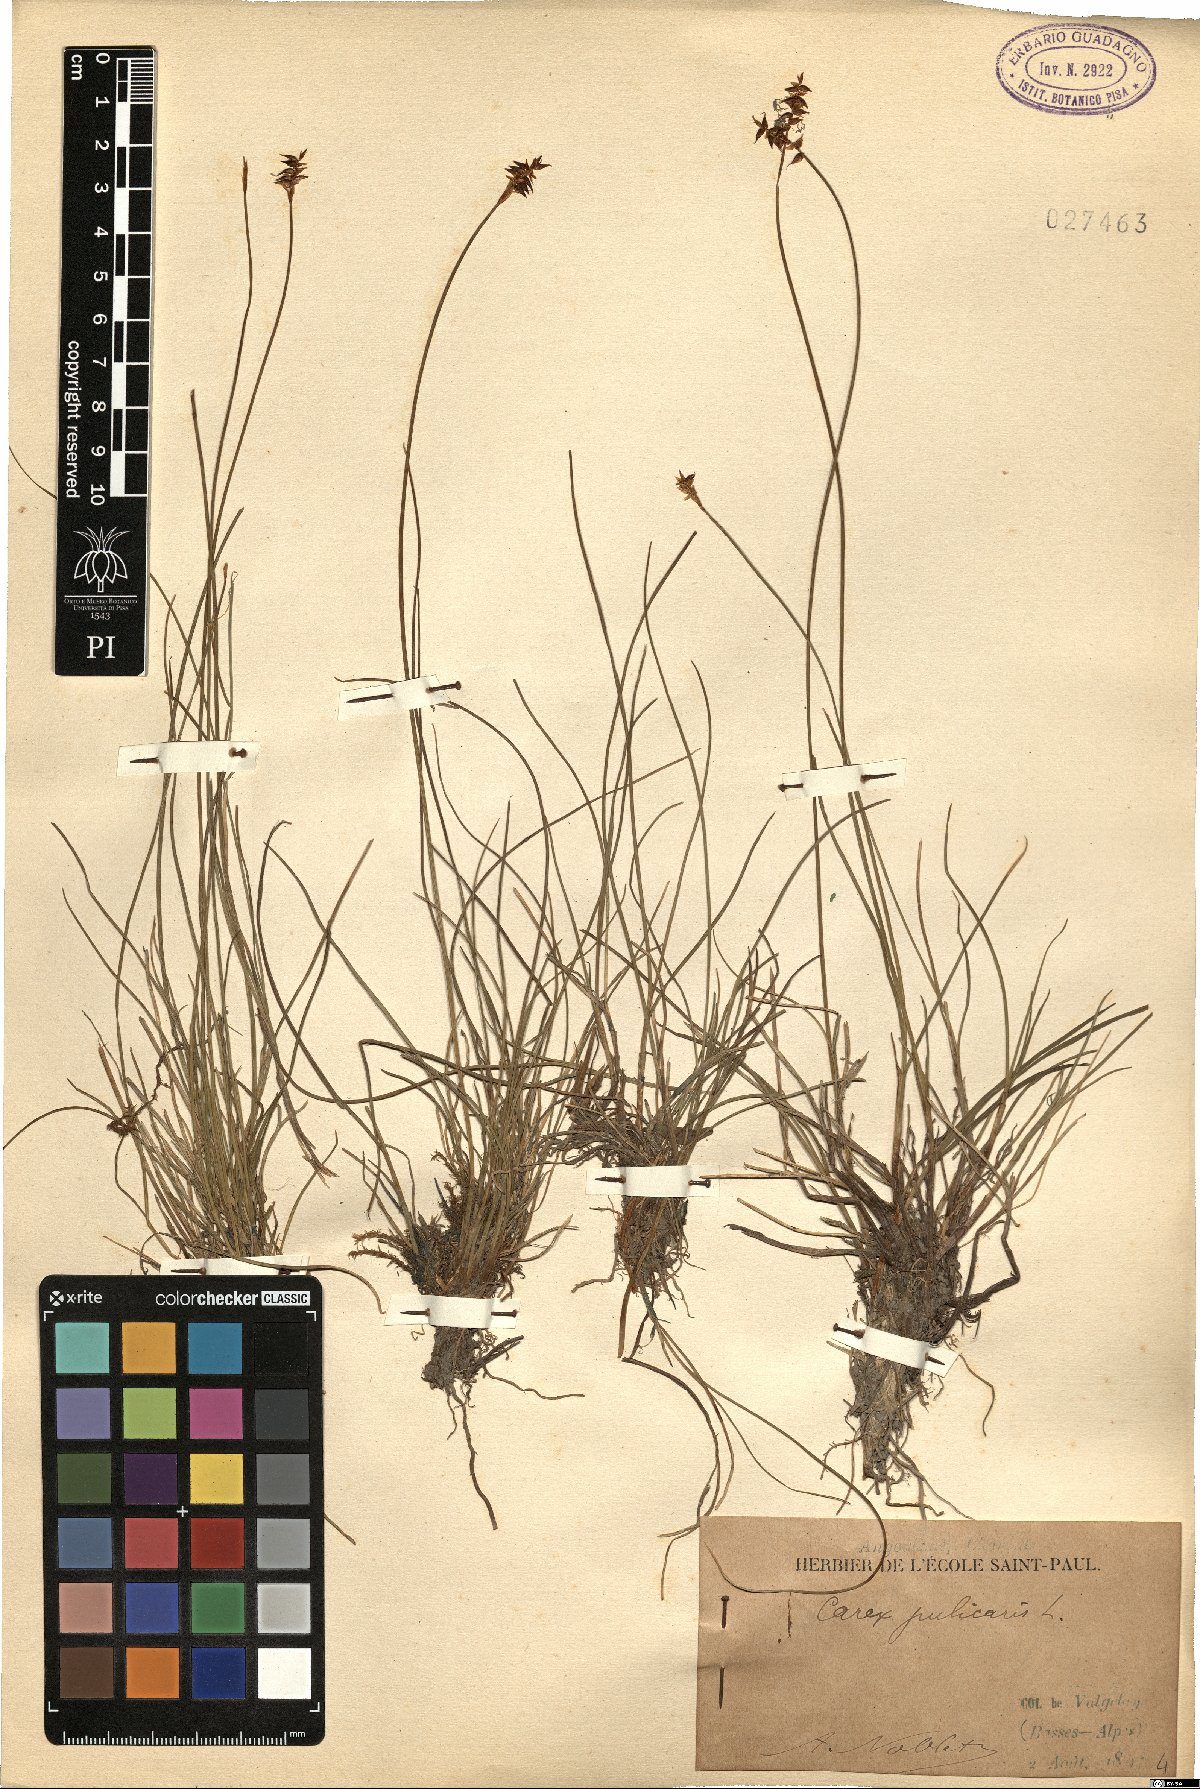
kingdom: Plantae
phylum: Tracheophyta
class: Liliopsida
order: Poales
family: Cyperaceae
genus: Carex
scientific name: Carex pulicaris
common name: Flea sedge
